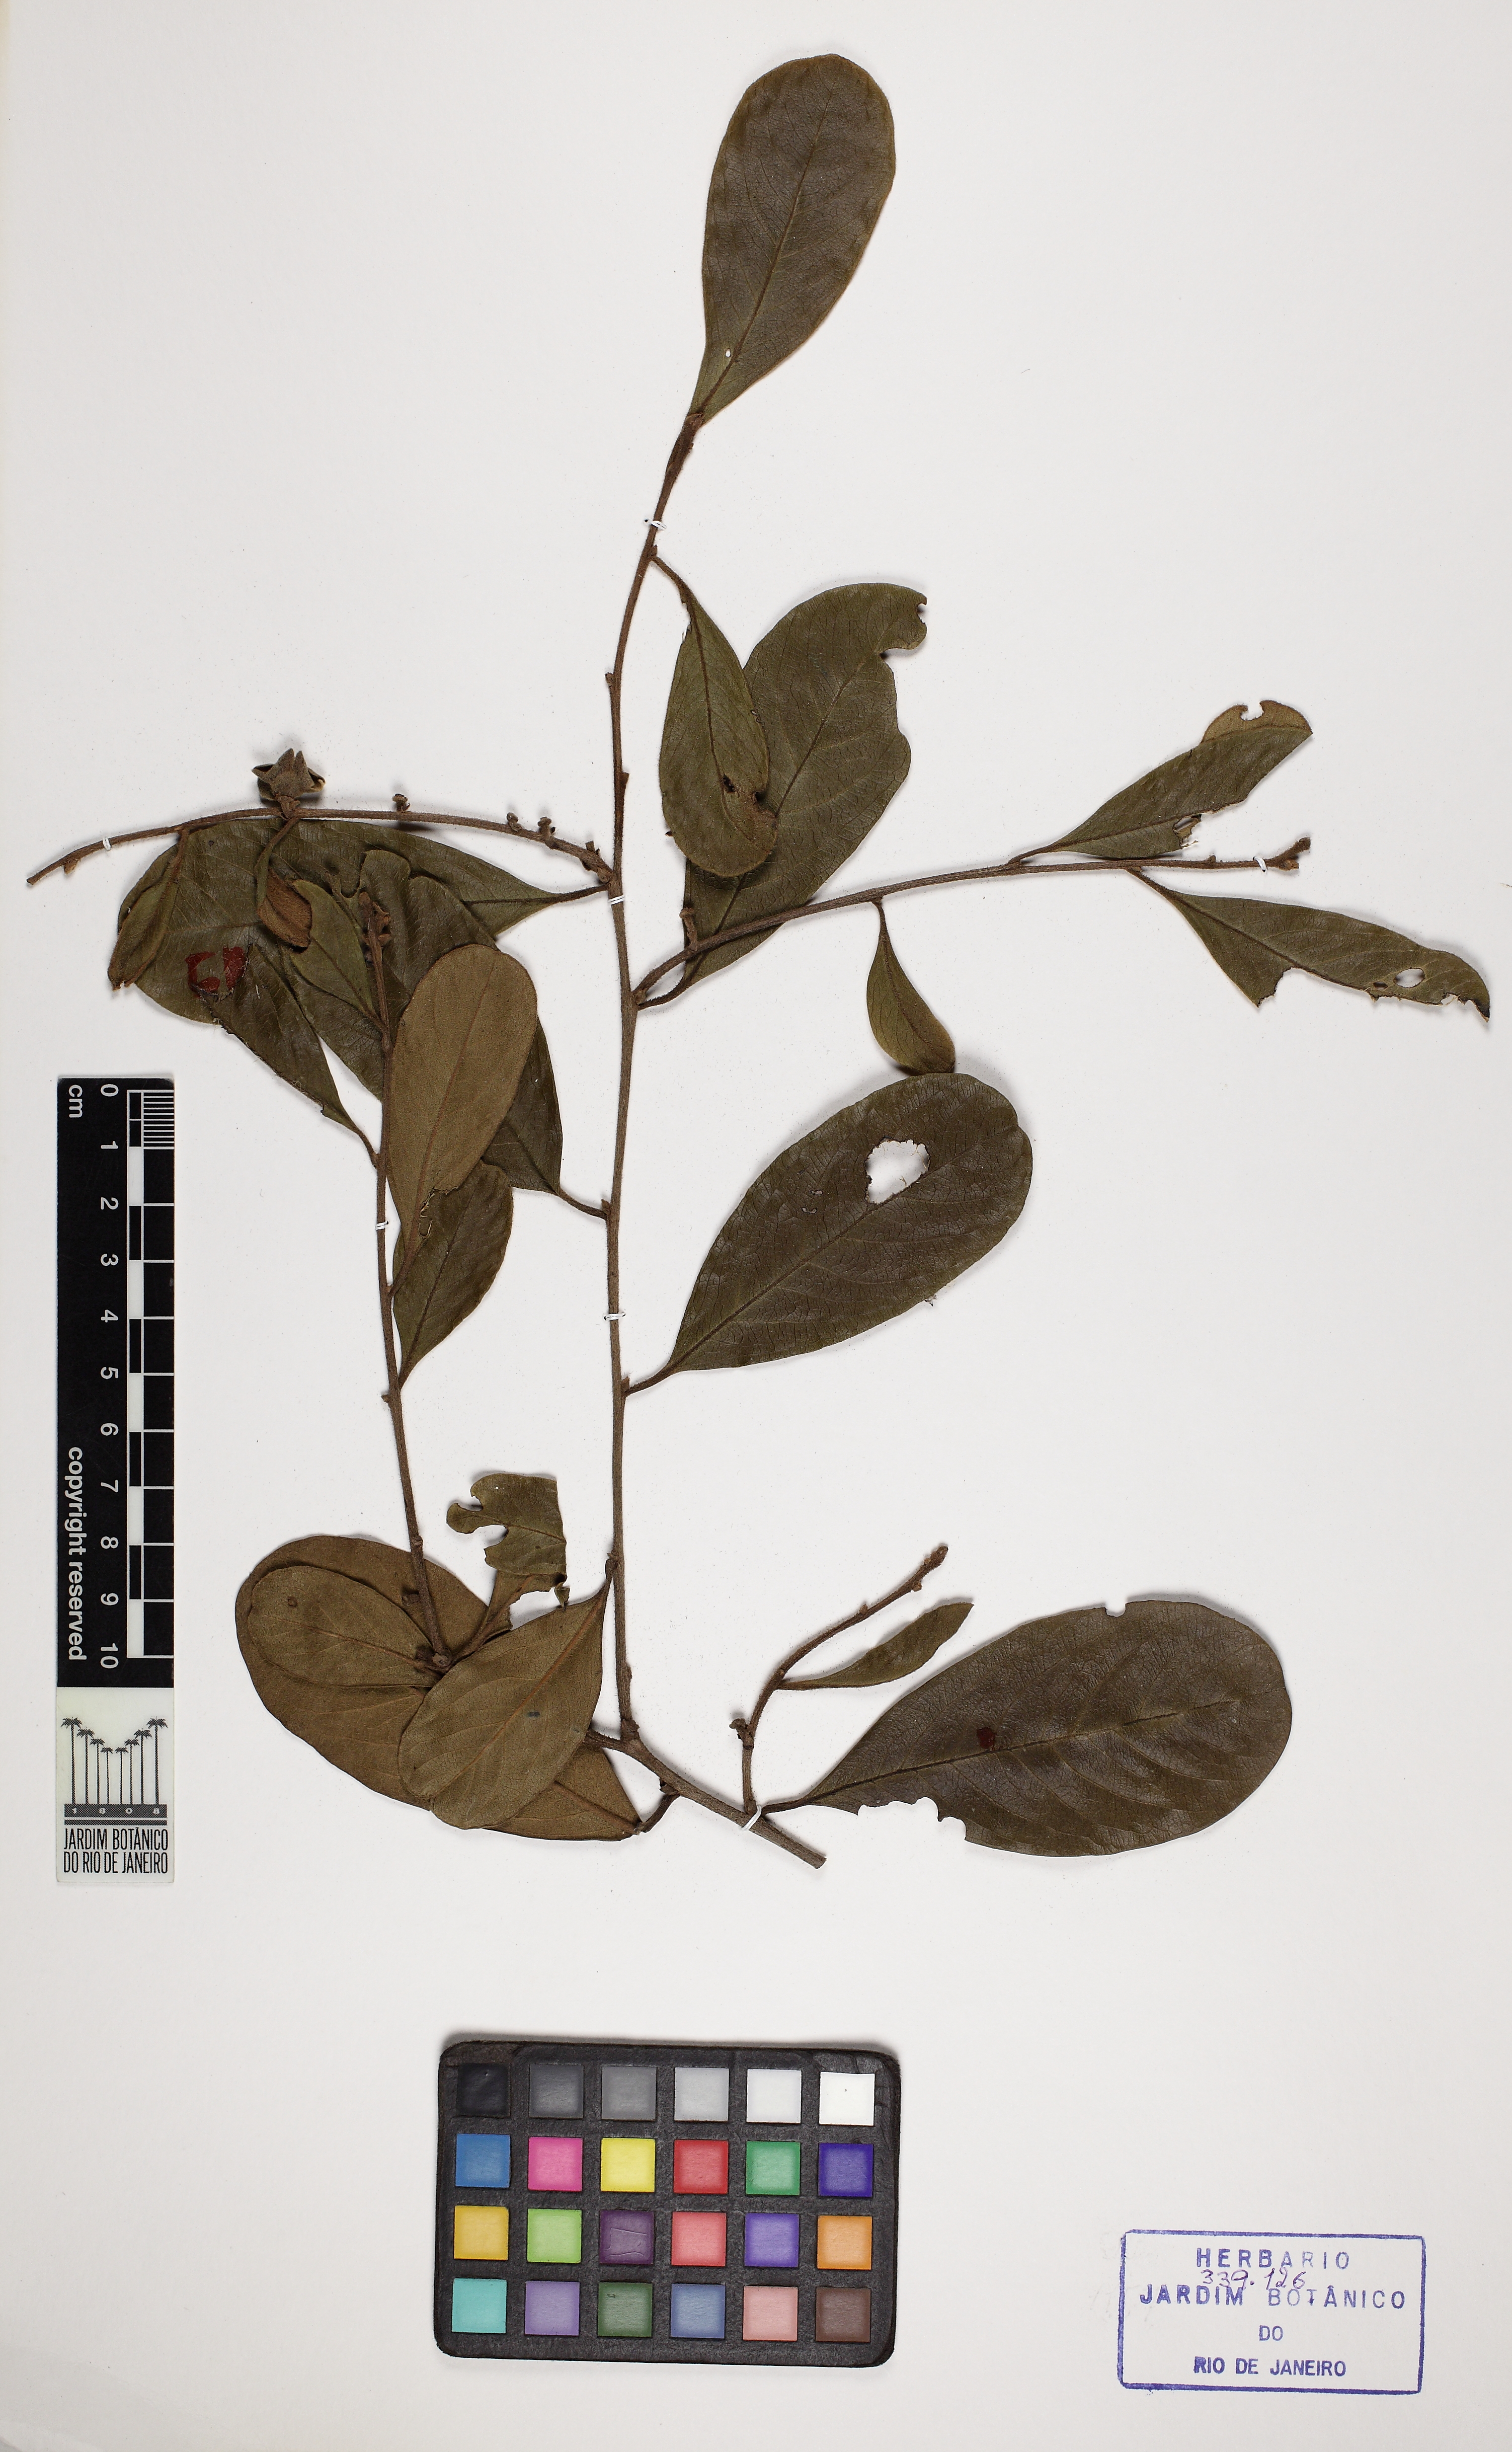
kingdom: Plantae
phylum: Tracheophyta
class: Magnoliopsida
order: Ericales
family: Ebenaceae
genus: Diospyros
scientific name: Diospyros inconstans
